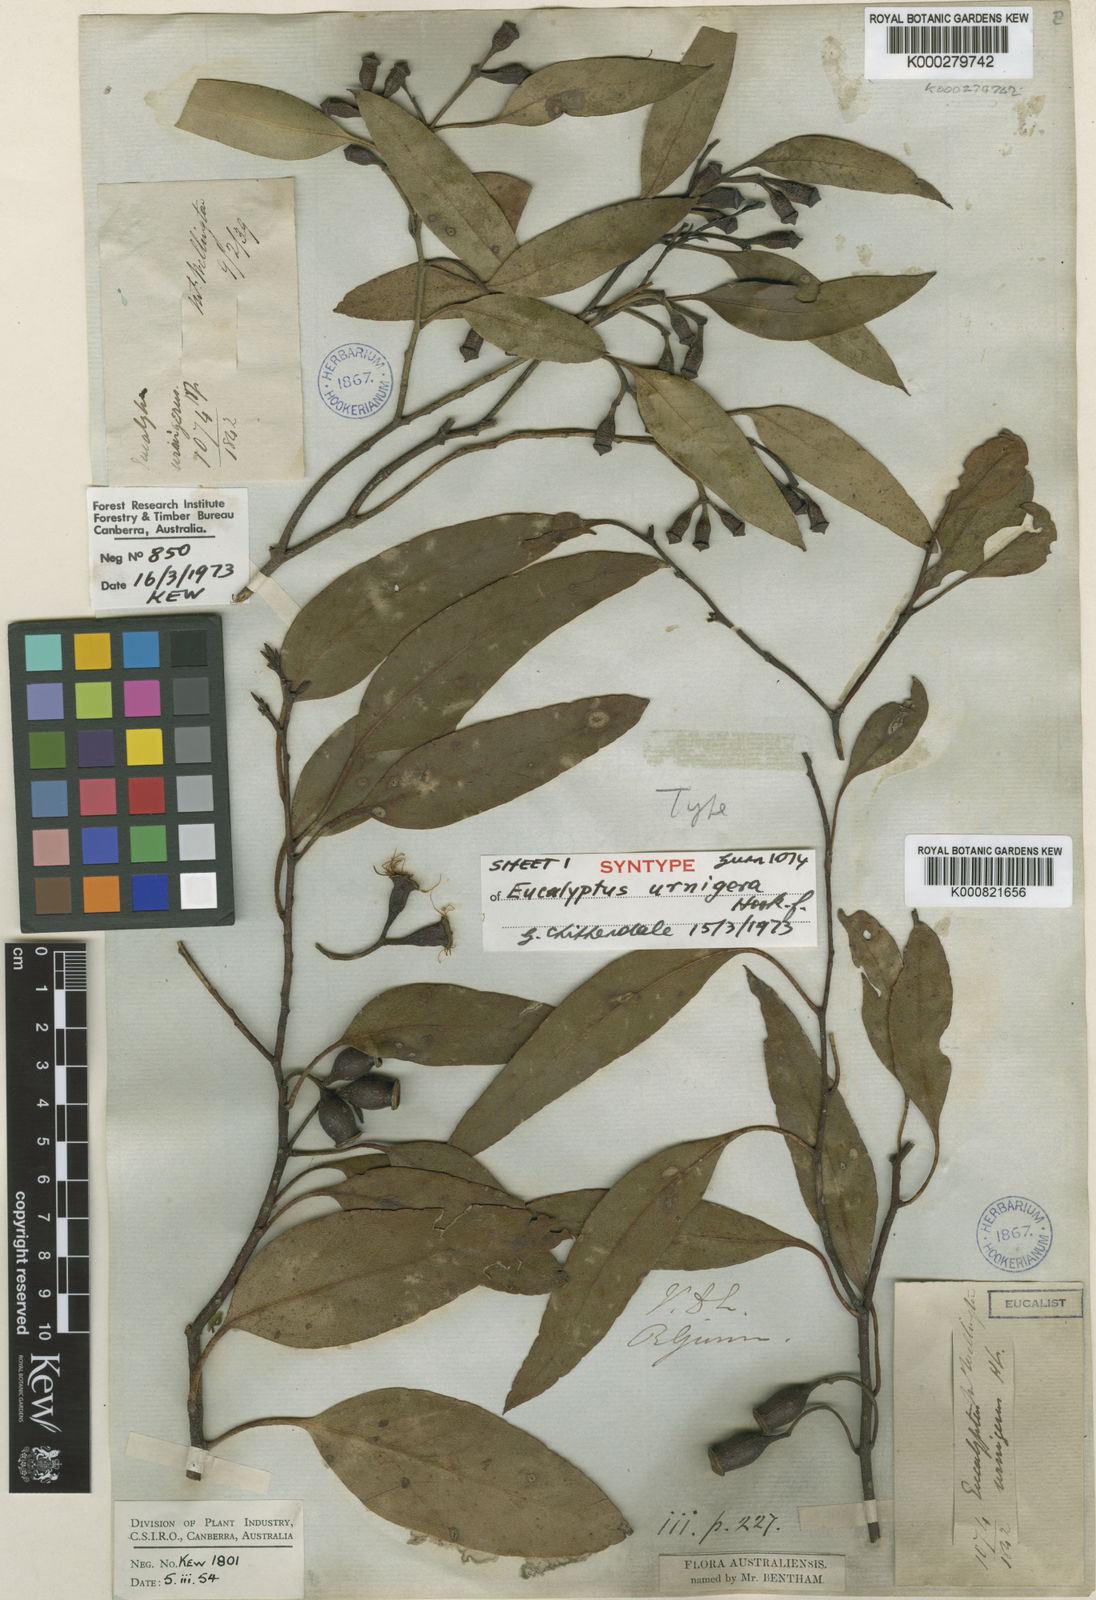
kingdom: Plantae
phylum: Tracheophyta
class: Magnoliopsida
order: Myrtales
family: Myrtaceae
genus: Eucalyptus
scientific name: Eucalyptus urnigera
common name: Urn-fruited gum
